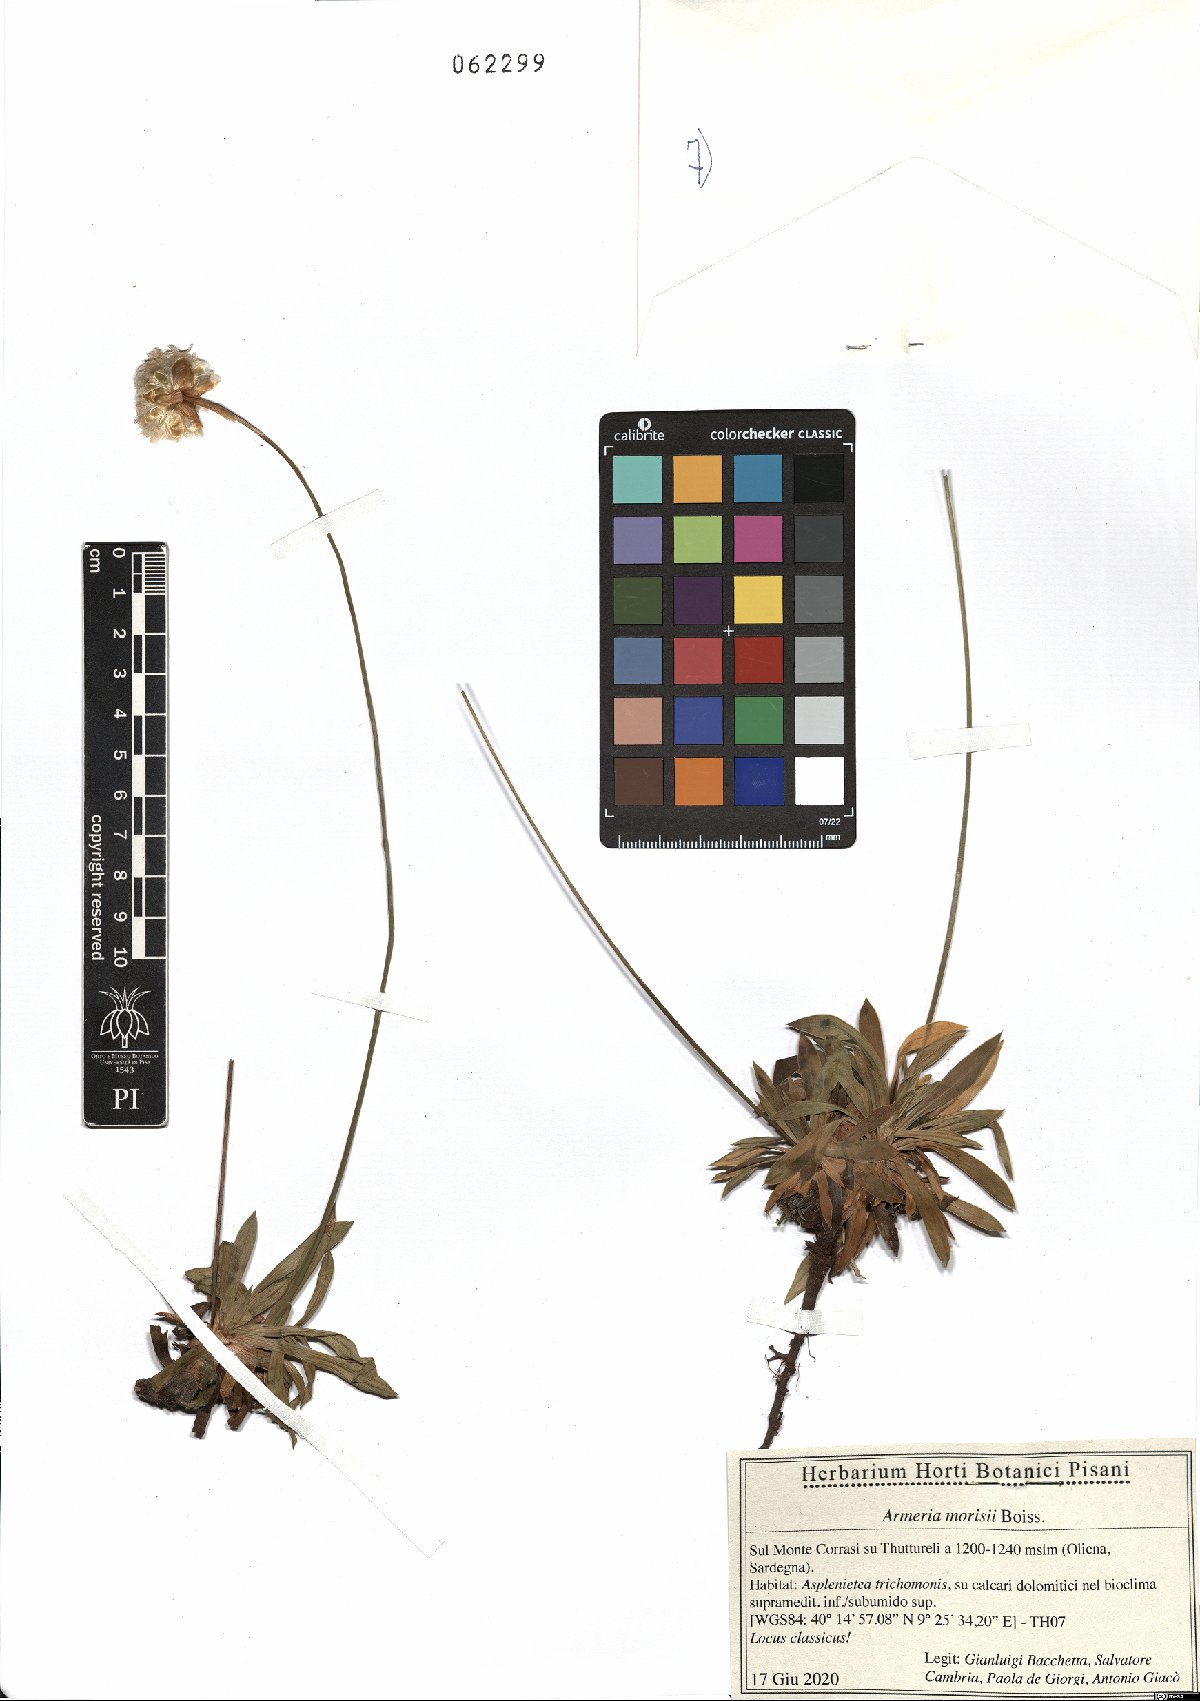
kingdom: Plantae
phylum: Tracheophyta
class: Magnoliopsida
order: Caryophyllales
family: Plumbaginaceae
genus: Armeria
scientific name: Armeria morisii
